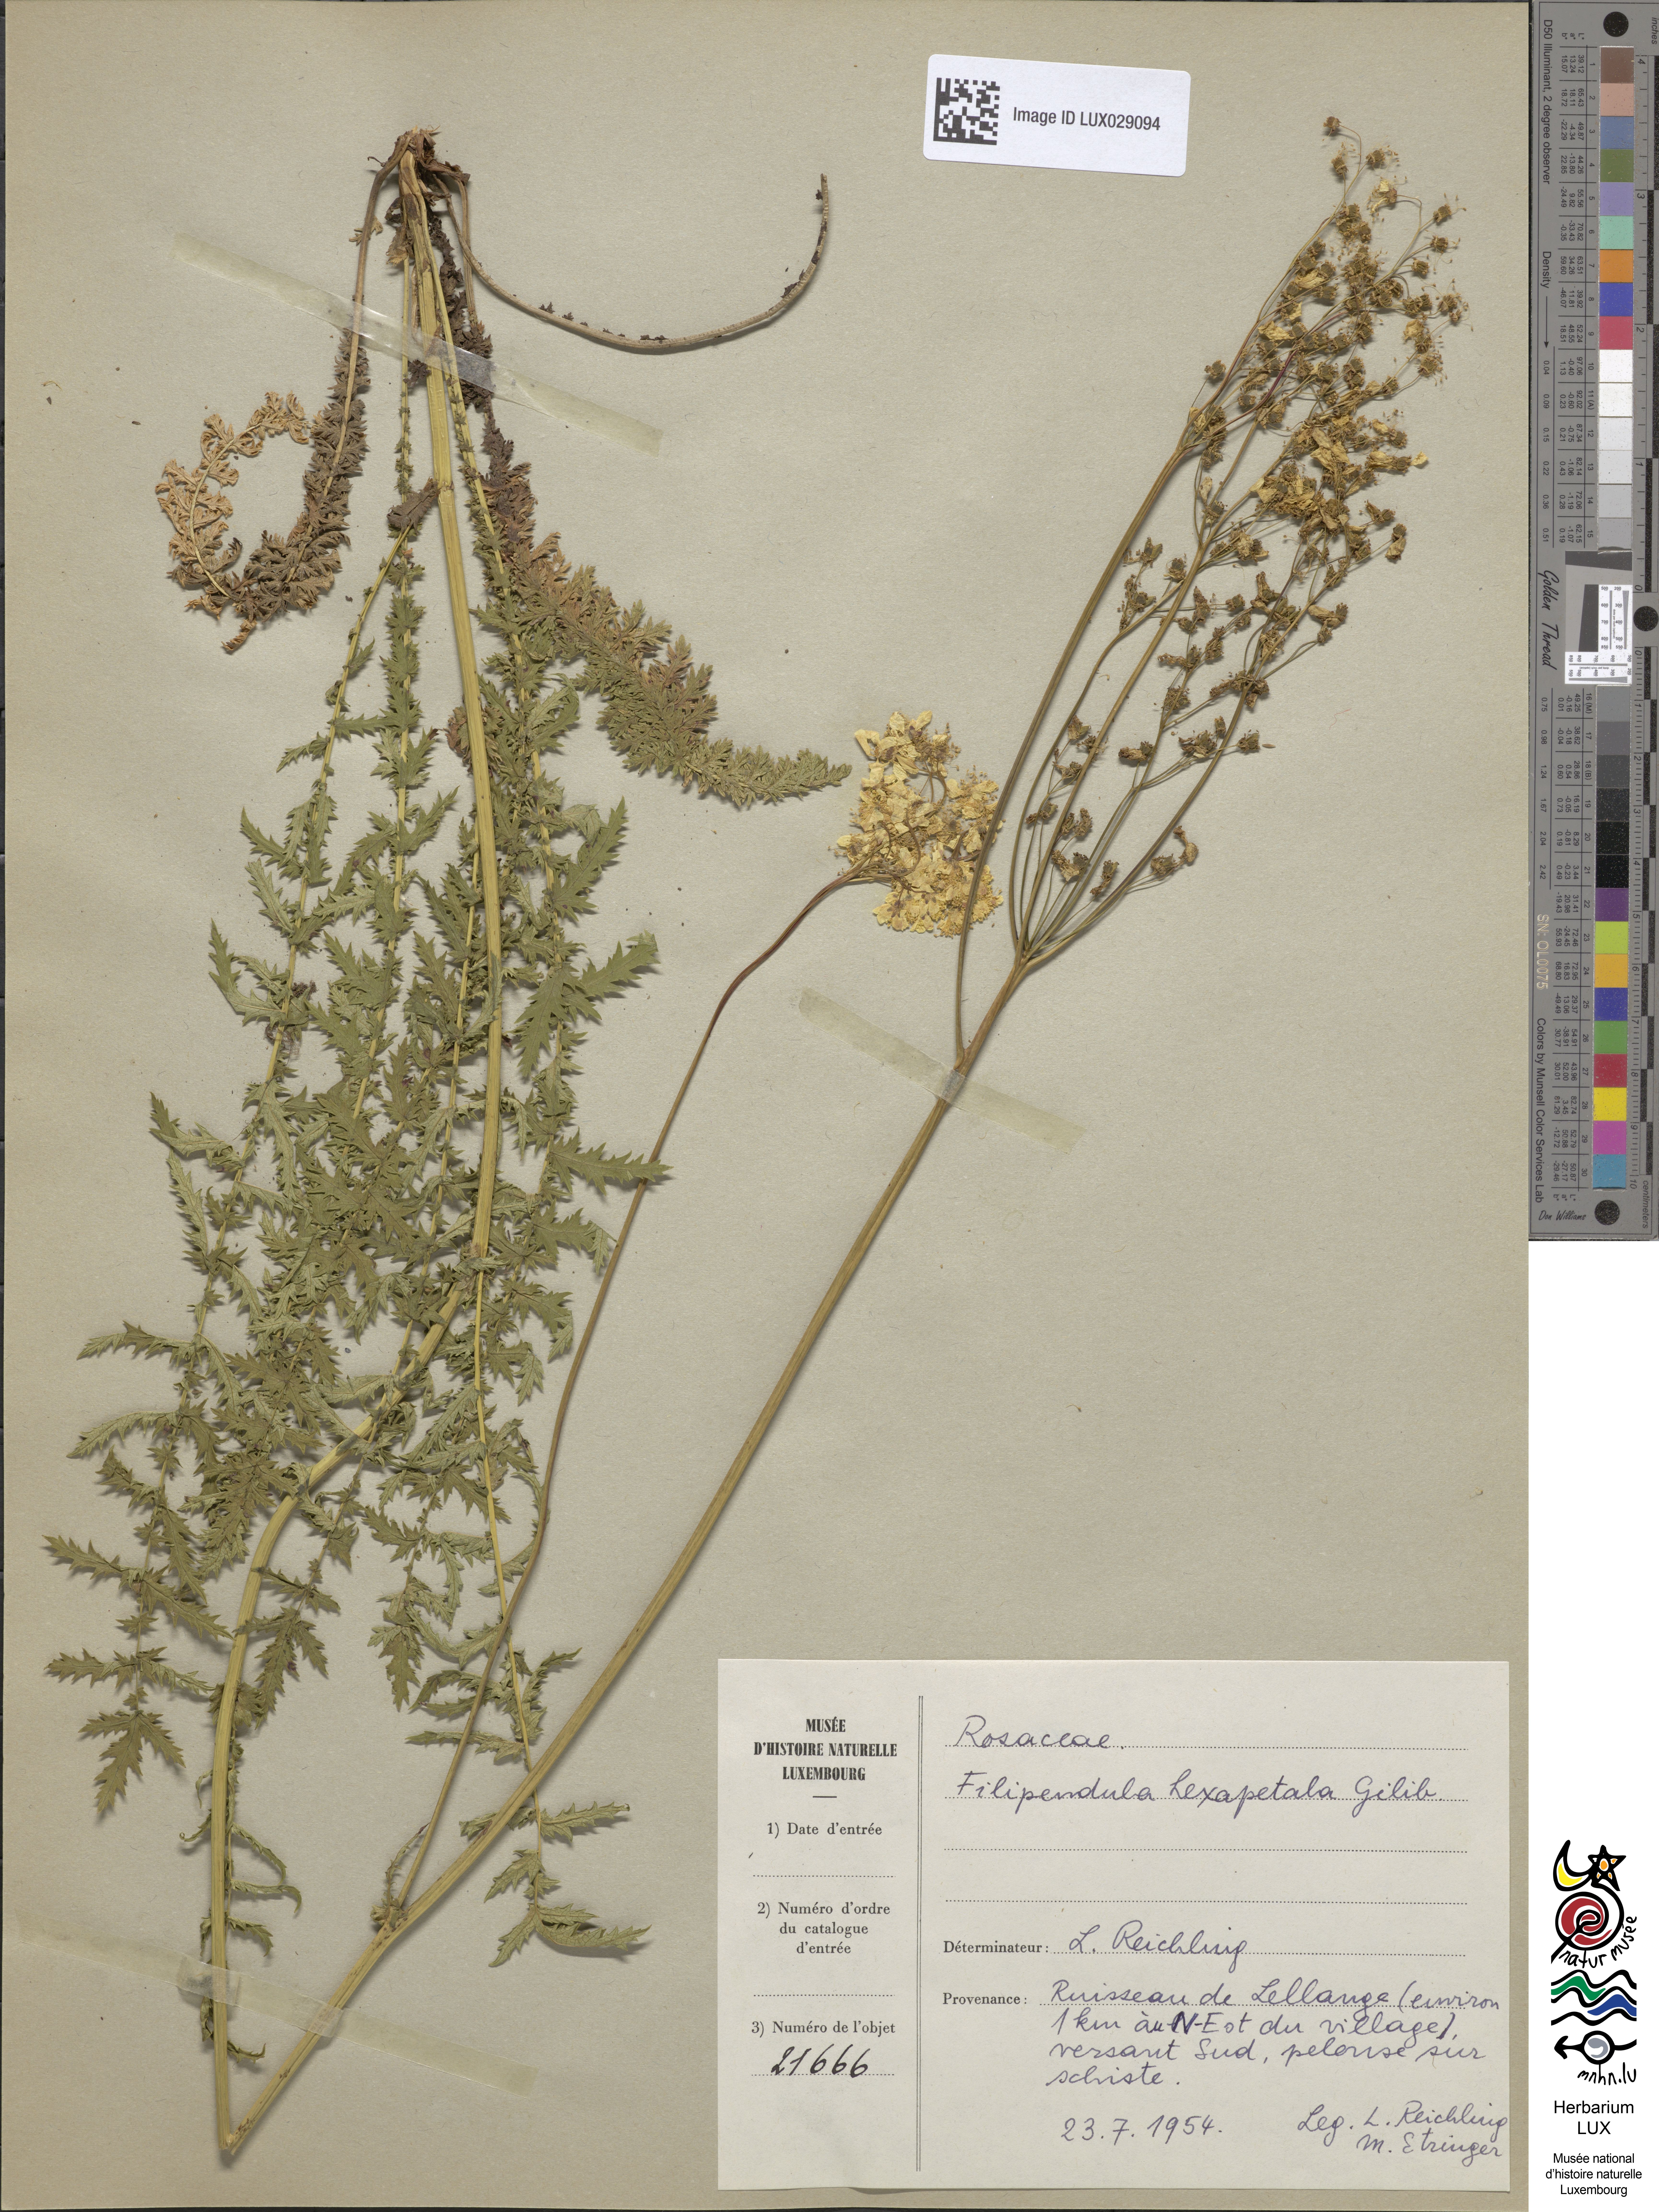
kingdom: Plantae
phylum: Tracheophyta
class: Magnoliopsida
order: Rosales
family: Rosaceae
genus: Filipendula
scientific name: Filipendula vulgaris
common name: Dropwort
